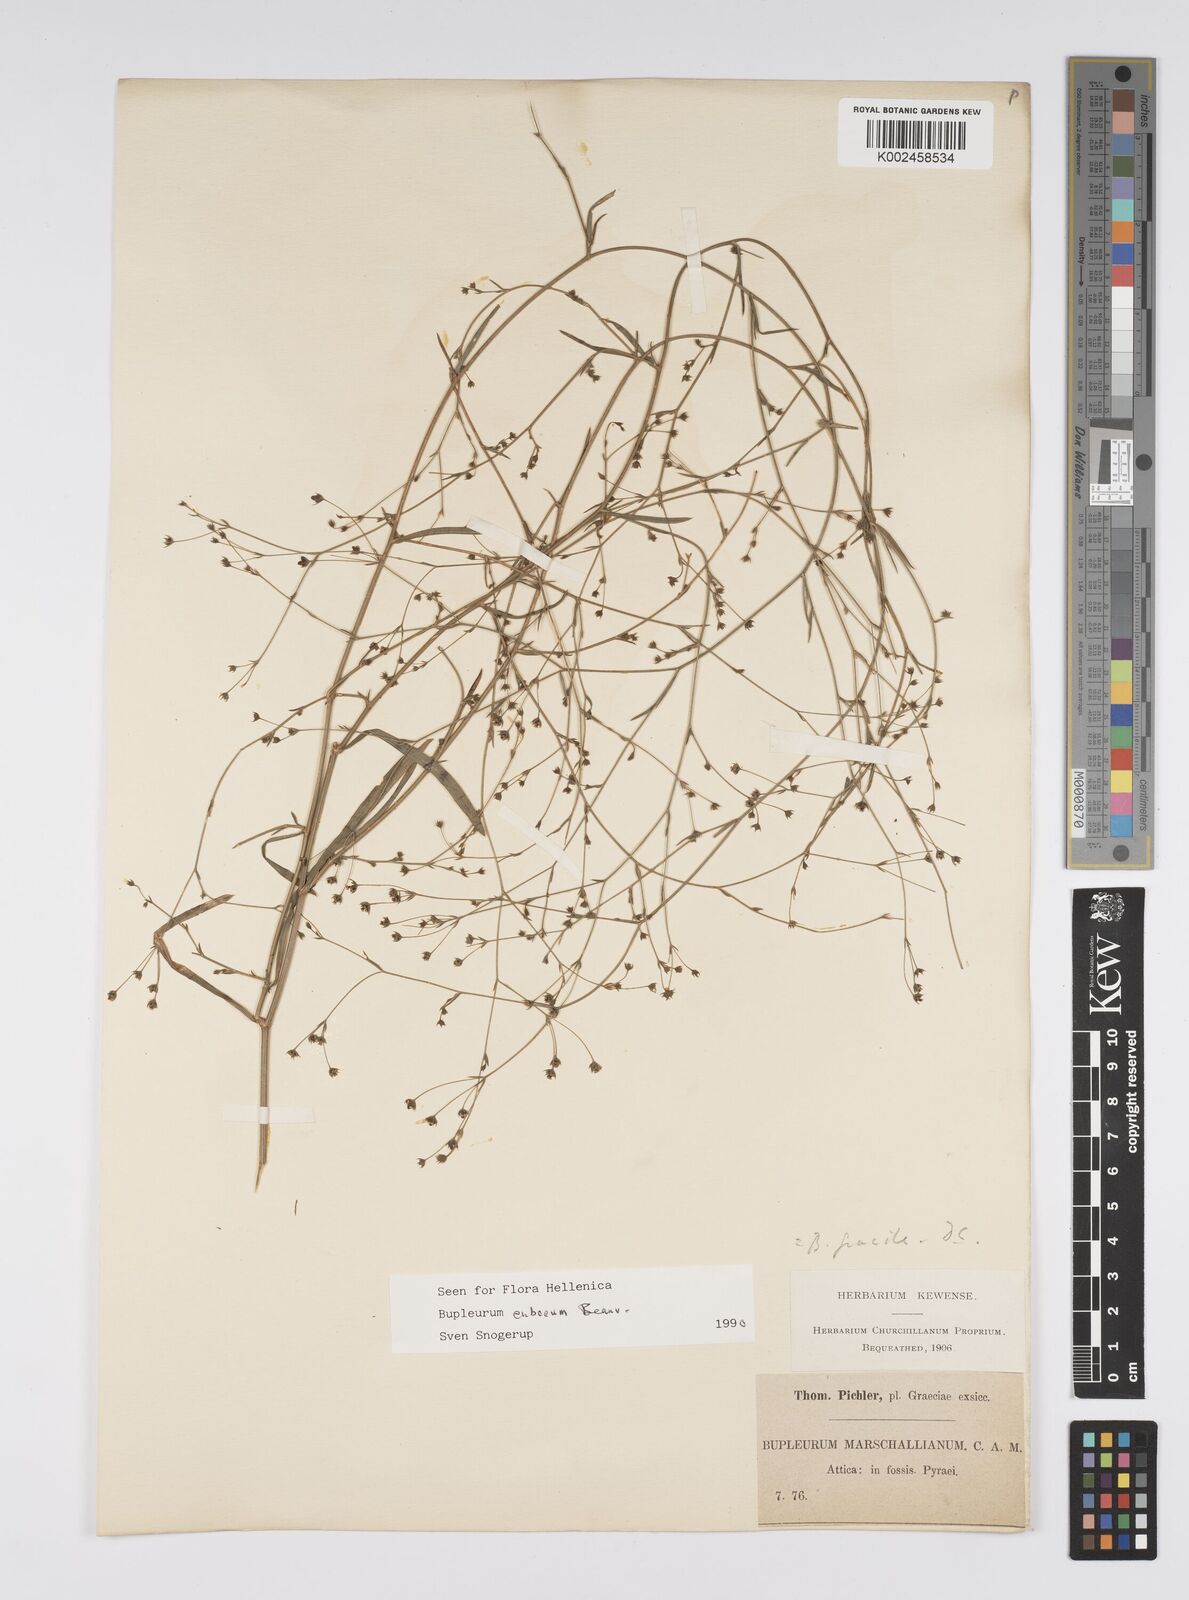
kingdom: Plantae
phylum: Tracheophyta
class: Magnoliopsida
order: Apiales
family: Apiaceae
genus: Bupleurum
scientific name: Bupleurum tenuissimum
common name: Slender hare's-ear
